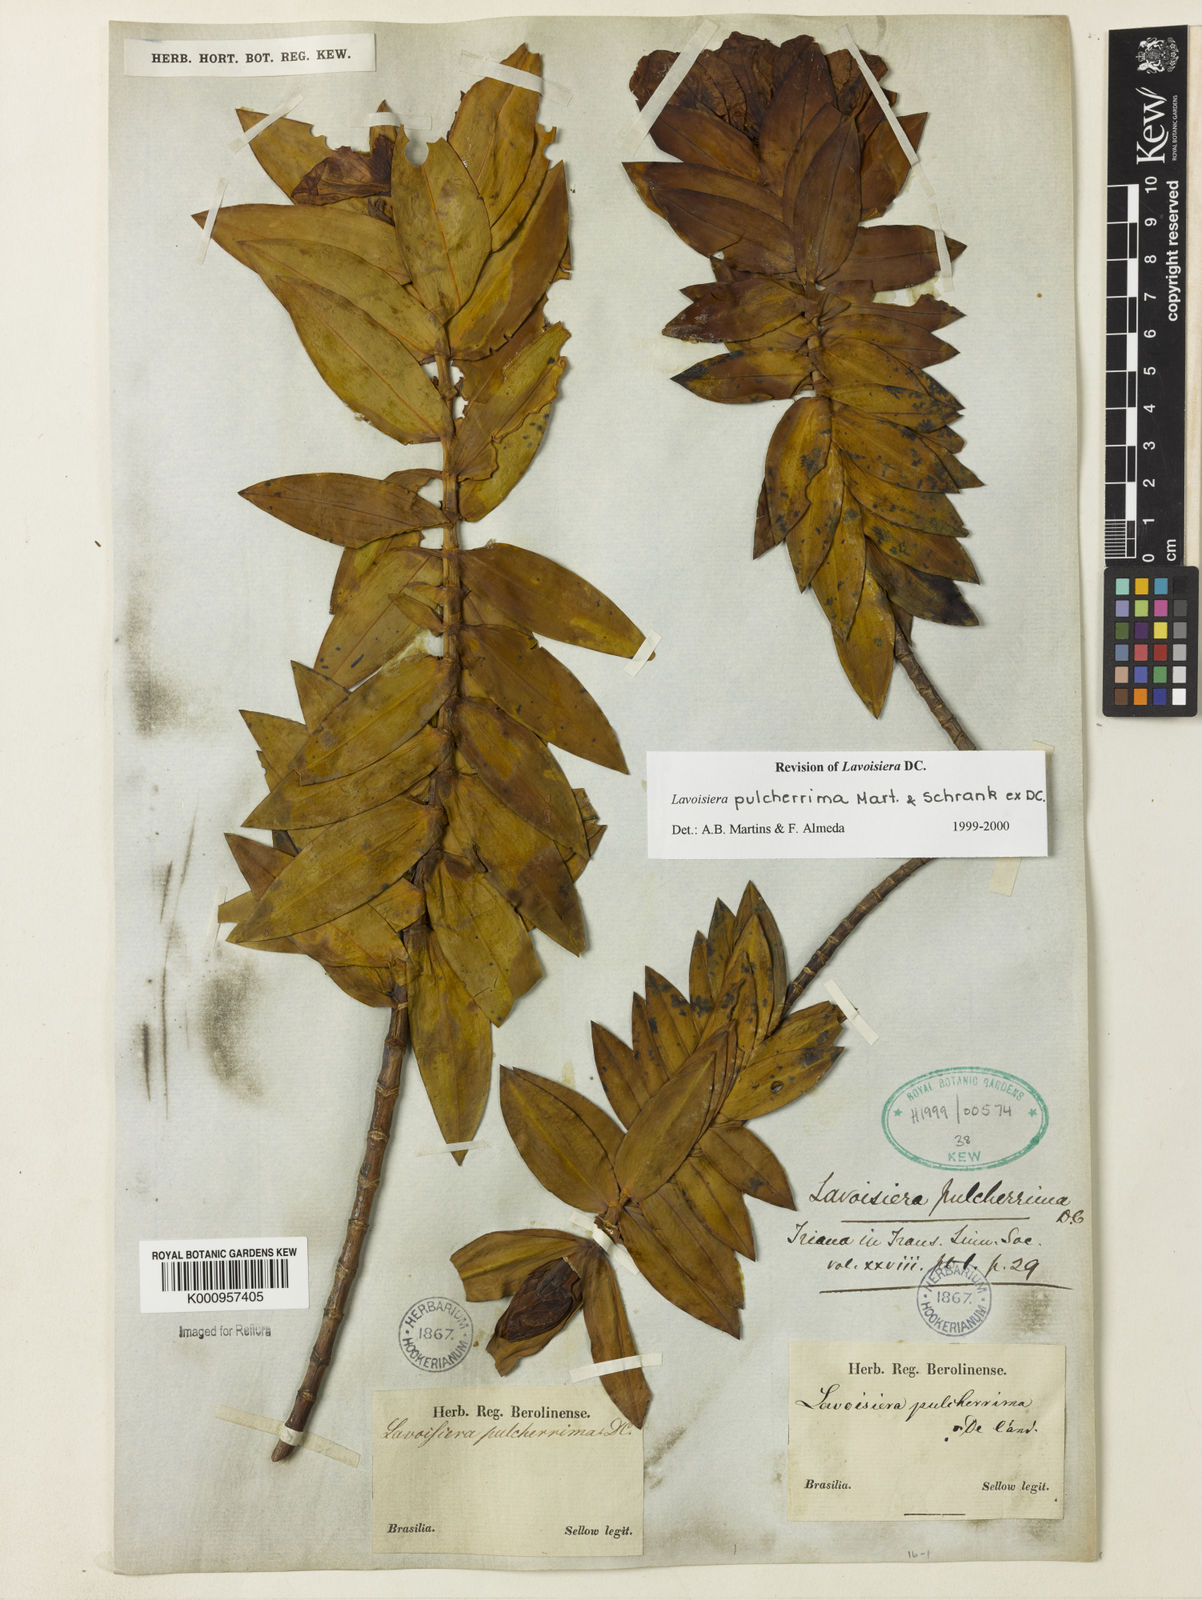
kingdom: Plantae
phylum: Tracheophyta
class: Magnoliopsida
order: Myrtales
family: Melastomataceae
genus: Microlicia
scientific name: Microlicia pulcherrima
